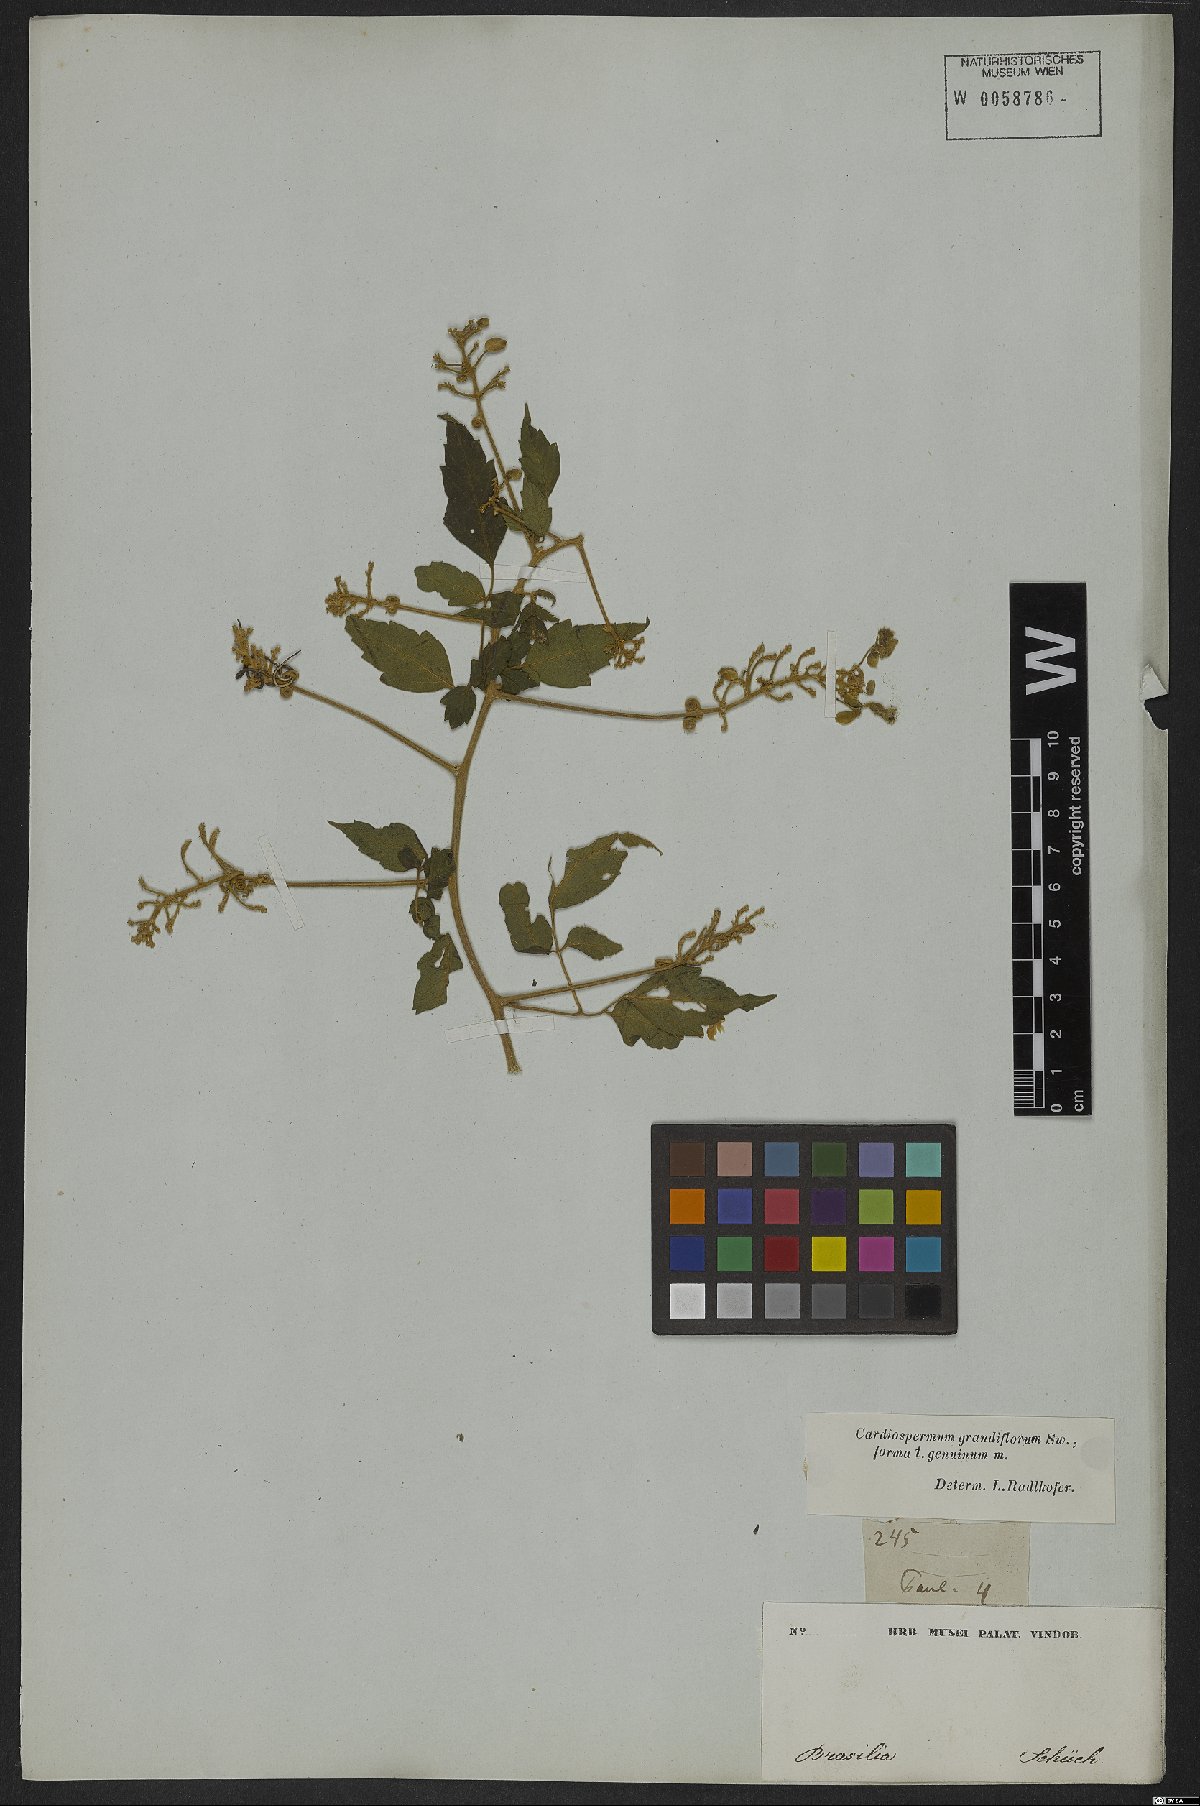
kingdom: Plantae
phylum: Tracheophyta
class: Magnoliopsida
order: Sapindales
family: Sapindaceae
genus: Cardiospermum
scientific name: Cardiospermum grandiflorum
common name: Balloon vine
